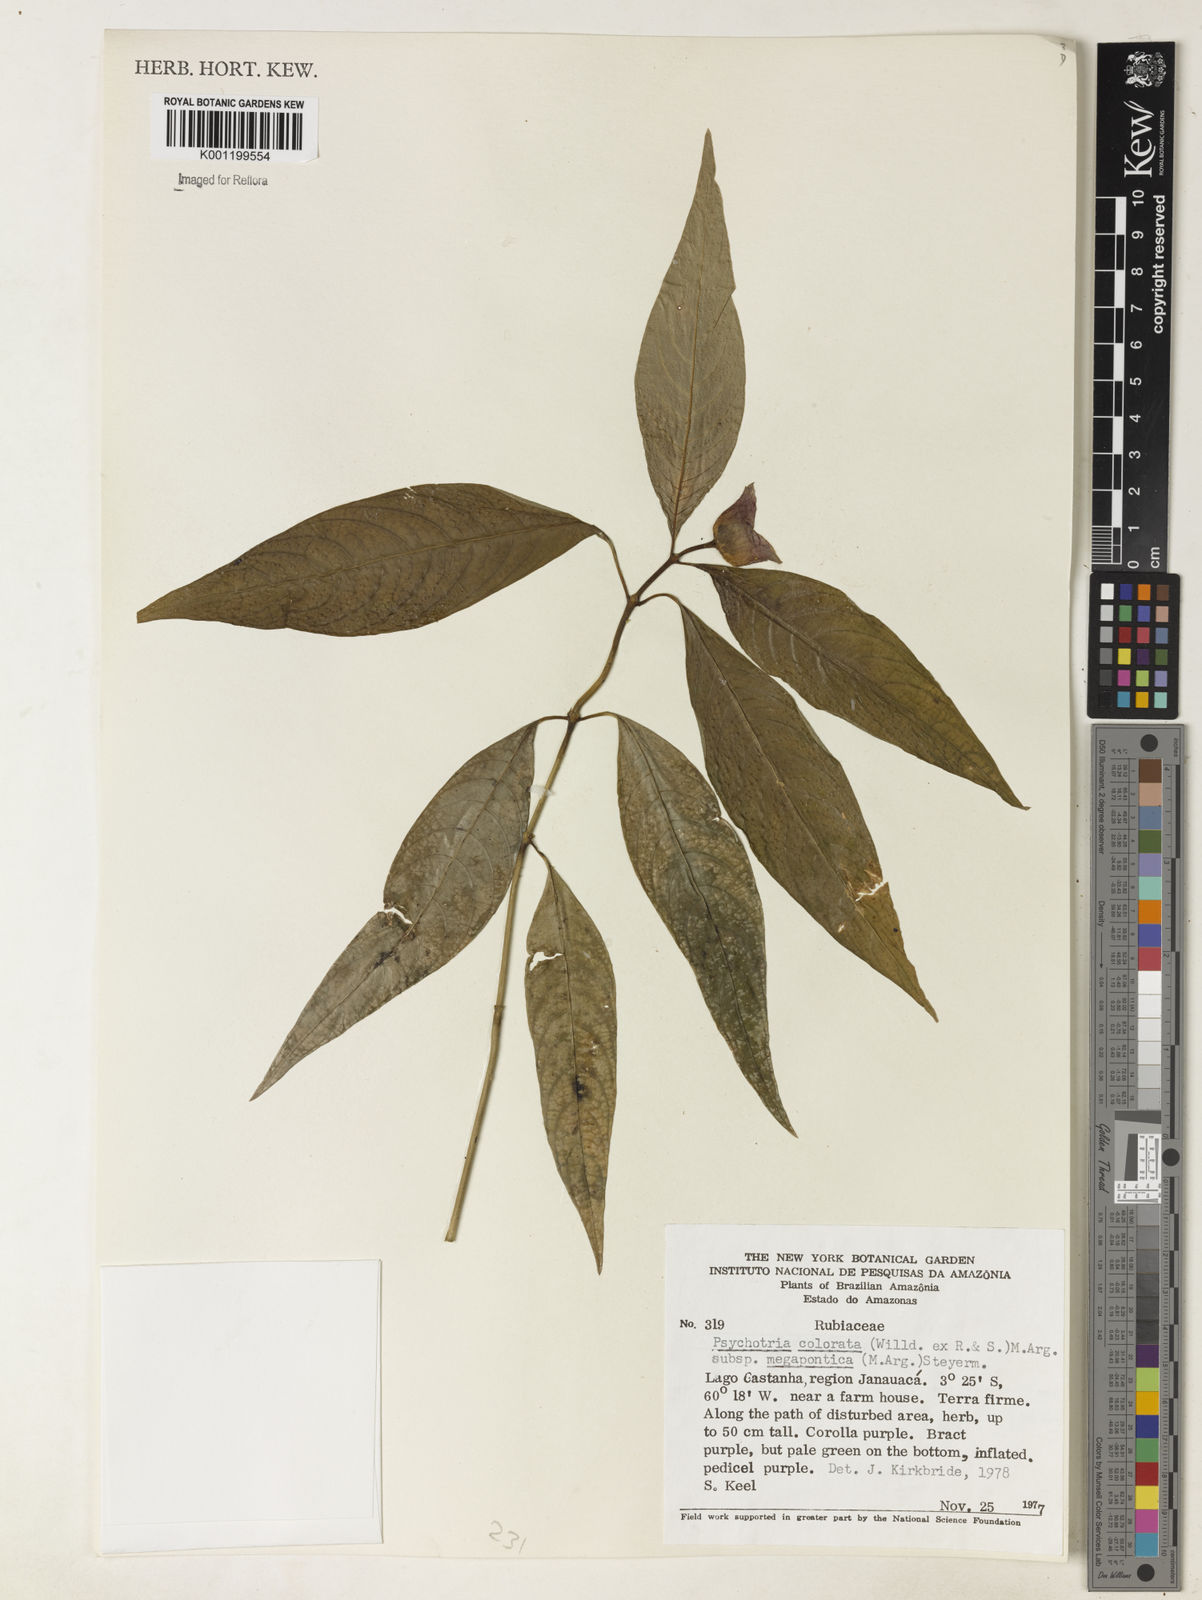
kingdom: Plantae
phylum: Tracheophyta
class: Magnoliopsida
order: Gentianales
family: Rubiaceae
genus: Psychotria
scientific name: Psychotria
